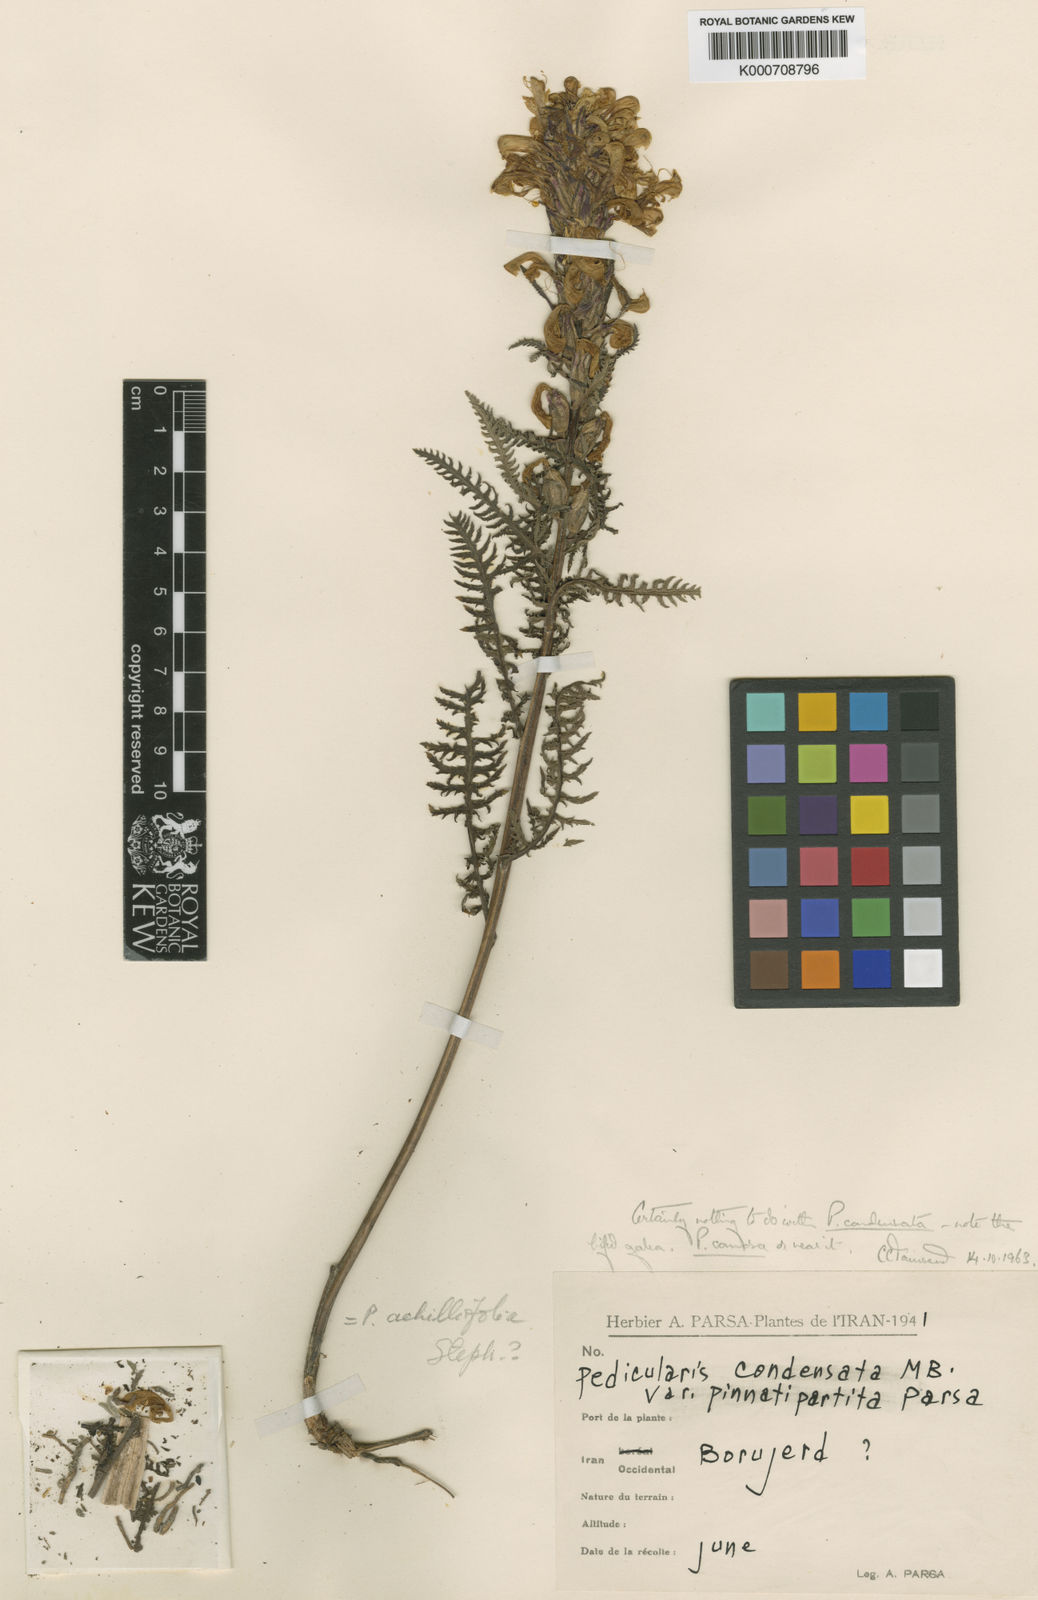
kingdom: Plantae
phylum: Tracheophyta
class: Magnoliopsida
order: Lamiales
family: Orobanchaceae
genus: Pedicularis
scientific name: Pedicularis
